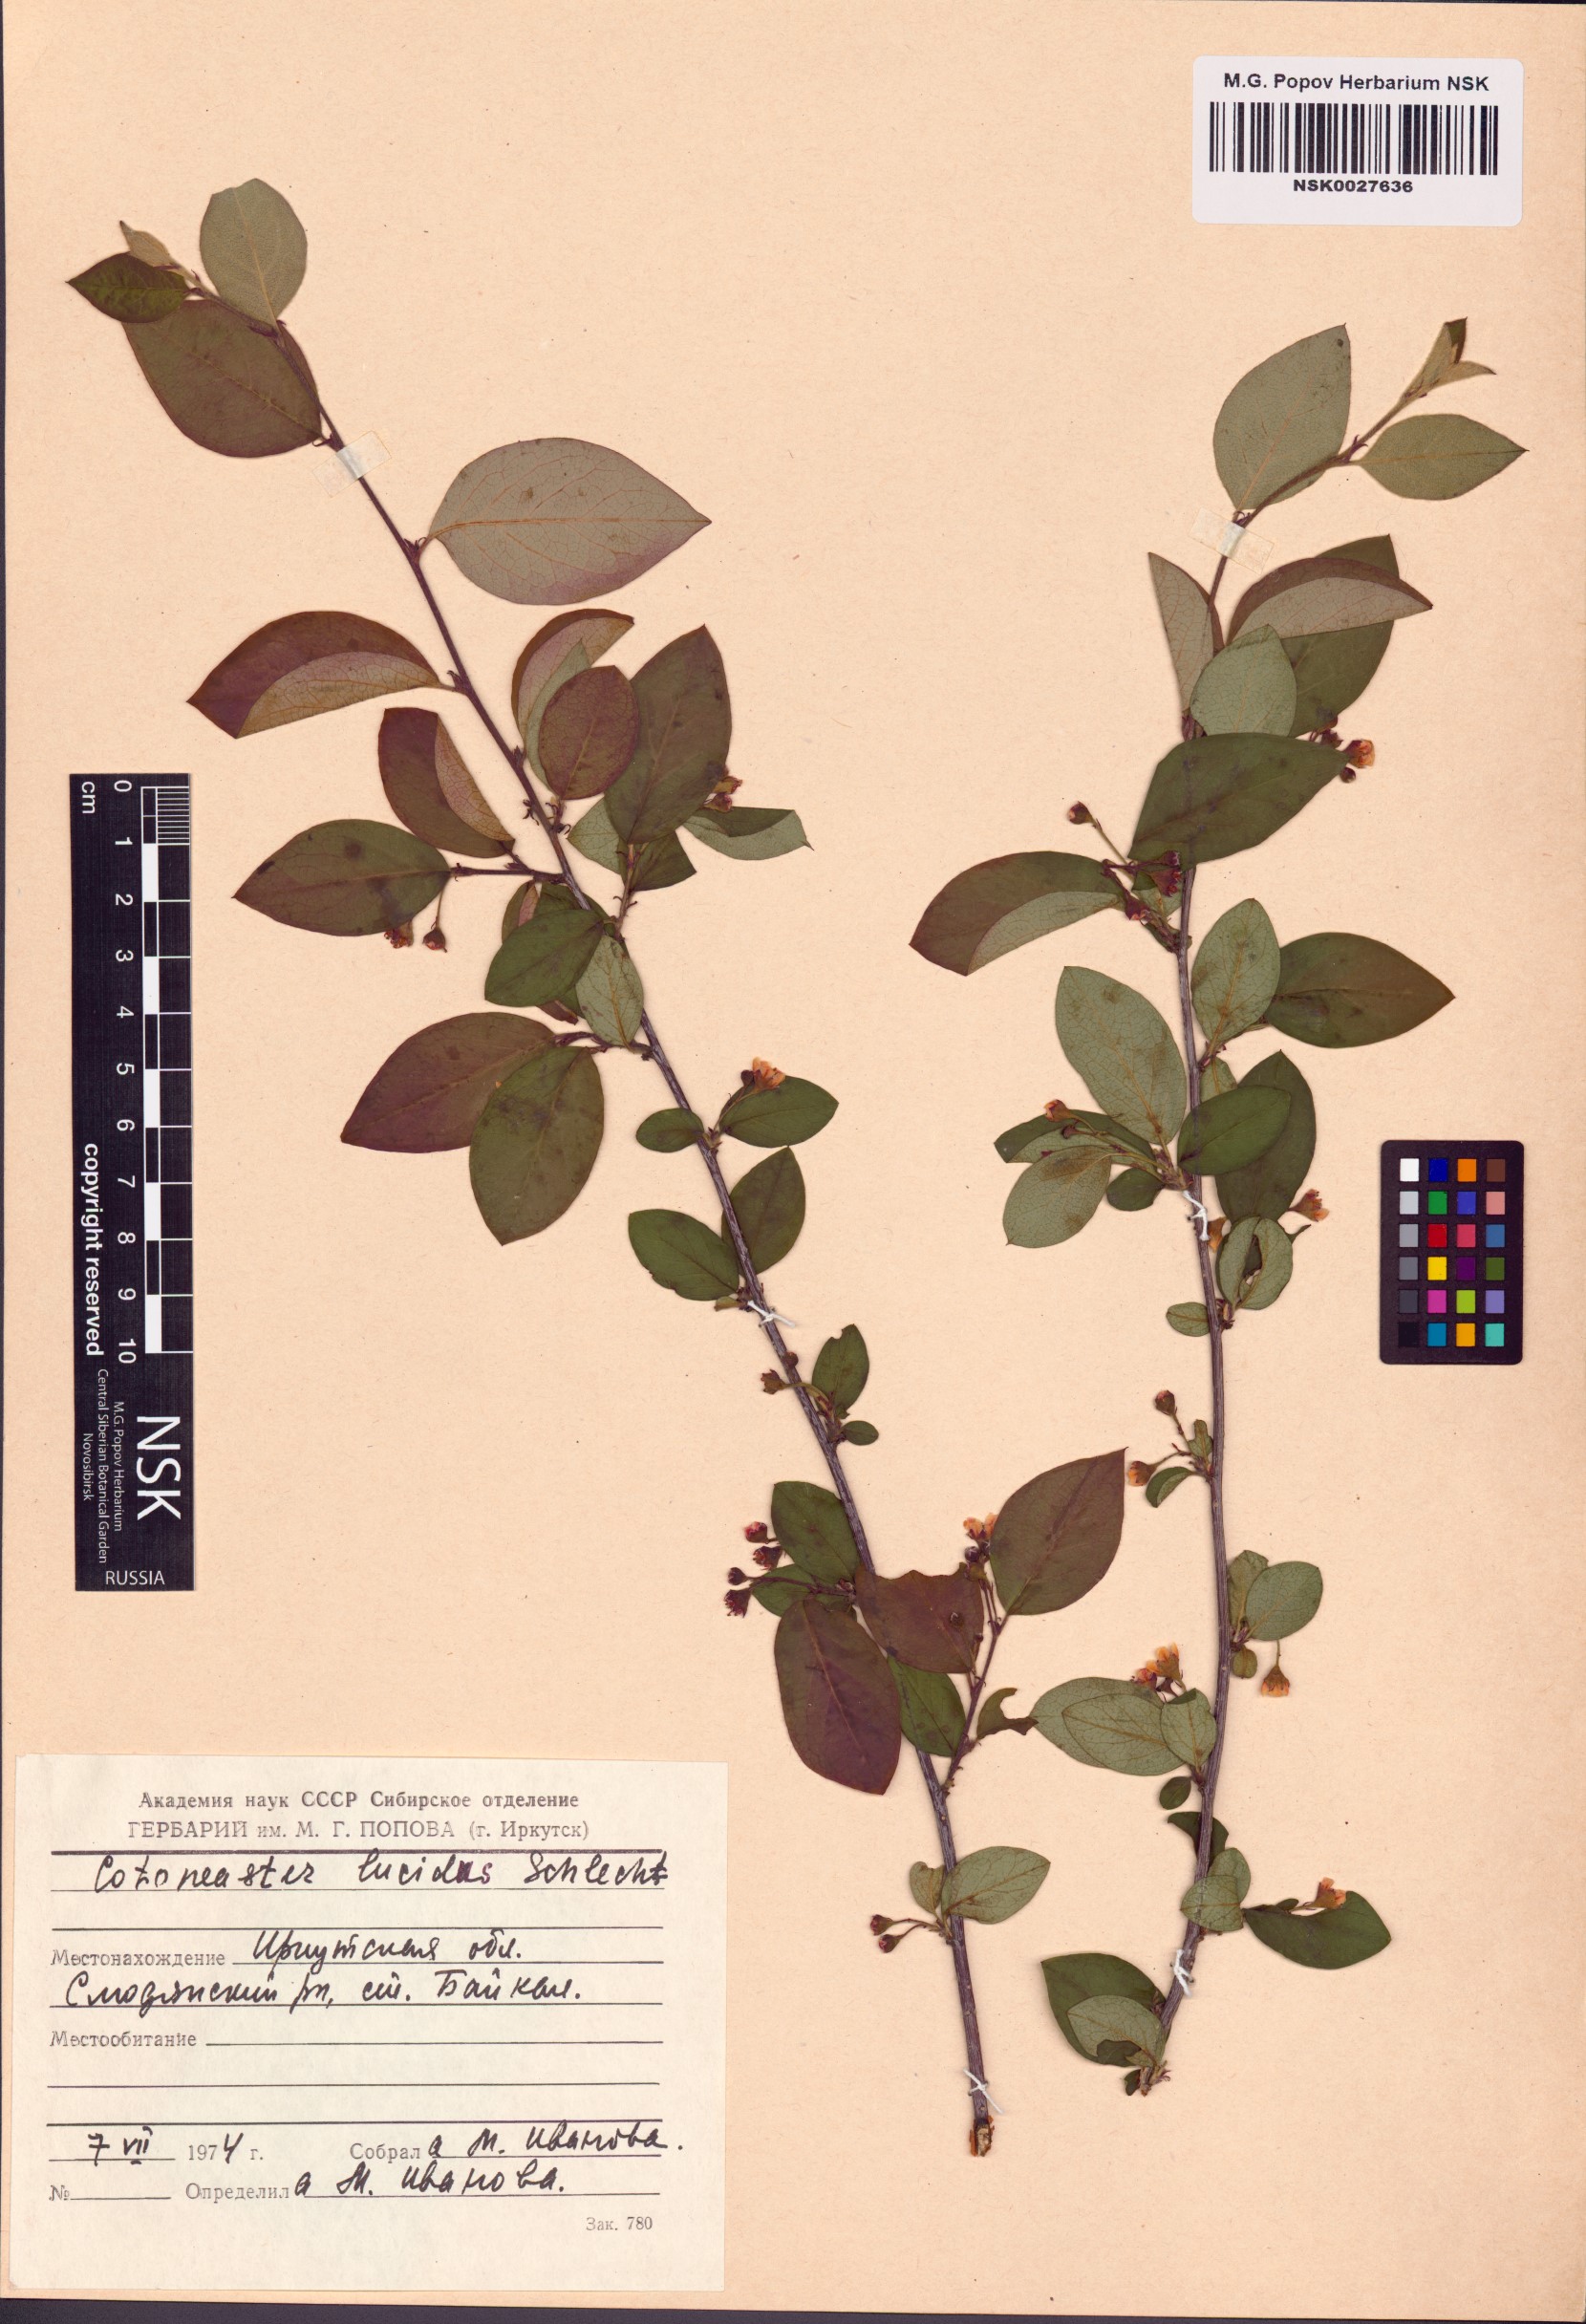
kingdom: Plantae
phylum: Tracheophyta
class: Magnoliopsida
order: Rosales
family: Rosaceae
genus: Cotoneaster
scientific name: Cotoneaster acutifolius
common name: Peking cotoneaster
